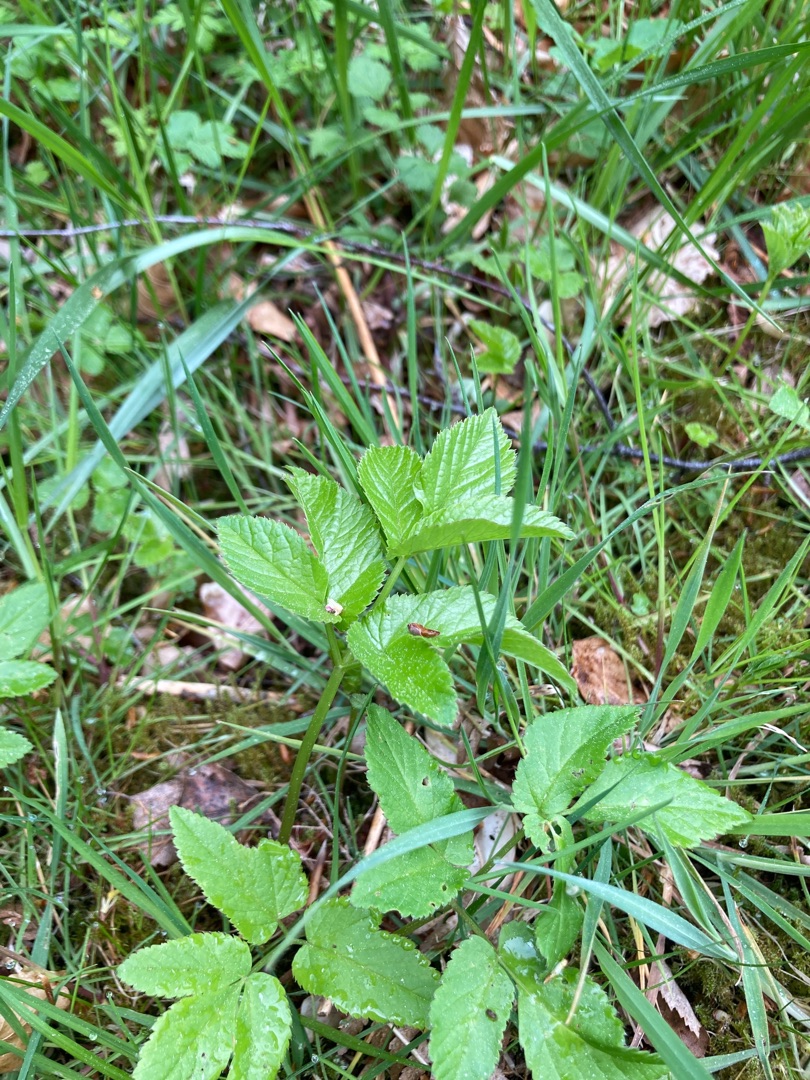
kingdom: Plantae
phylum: Tracheophyta
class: Magnoliopsida
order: Apiales
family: Apiaceae
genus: Aegopodium
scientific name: Aegopodium podagraria
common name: Skvalderkål
